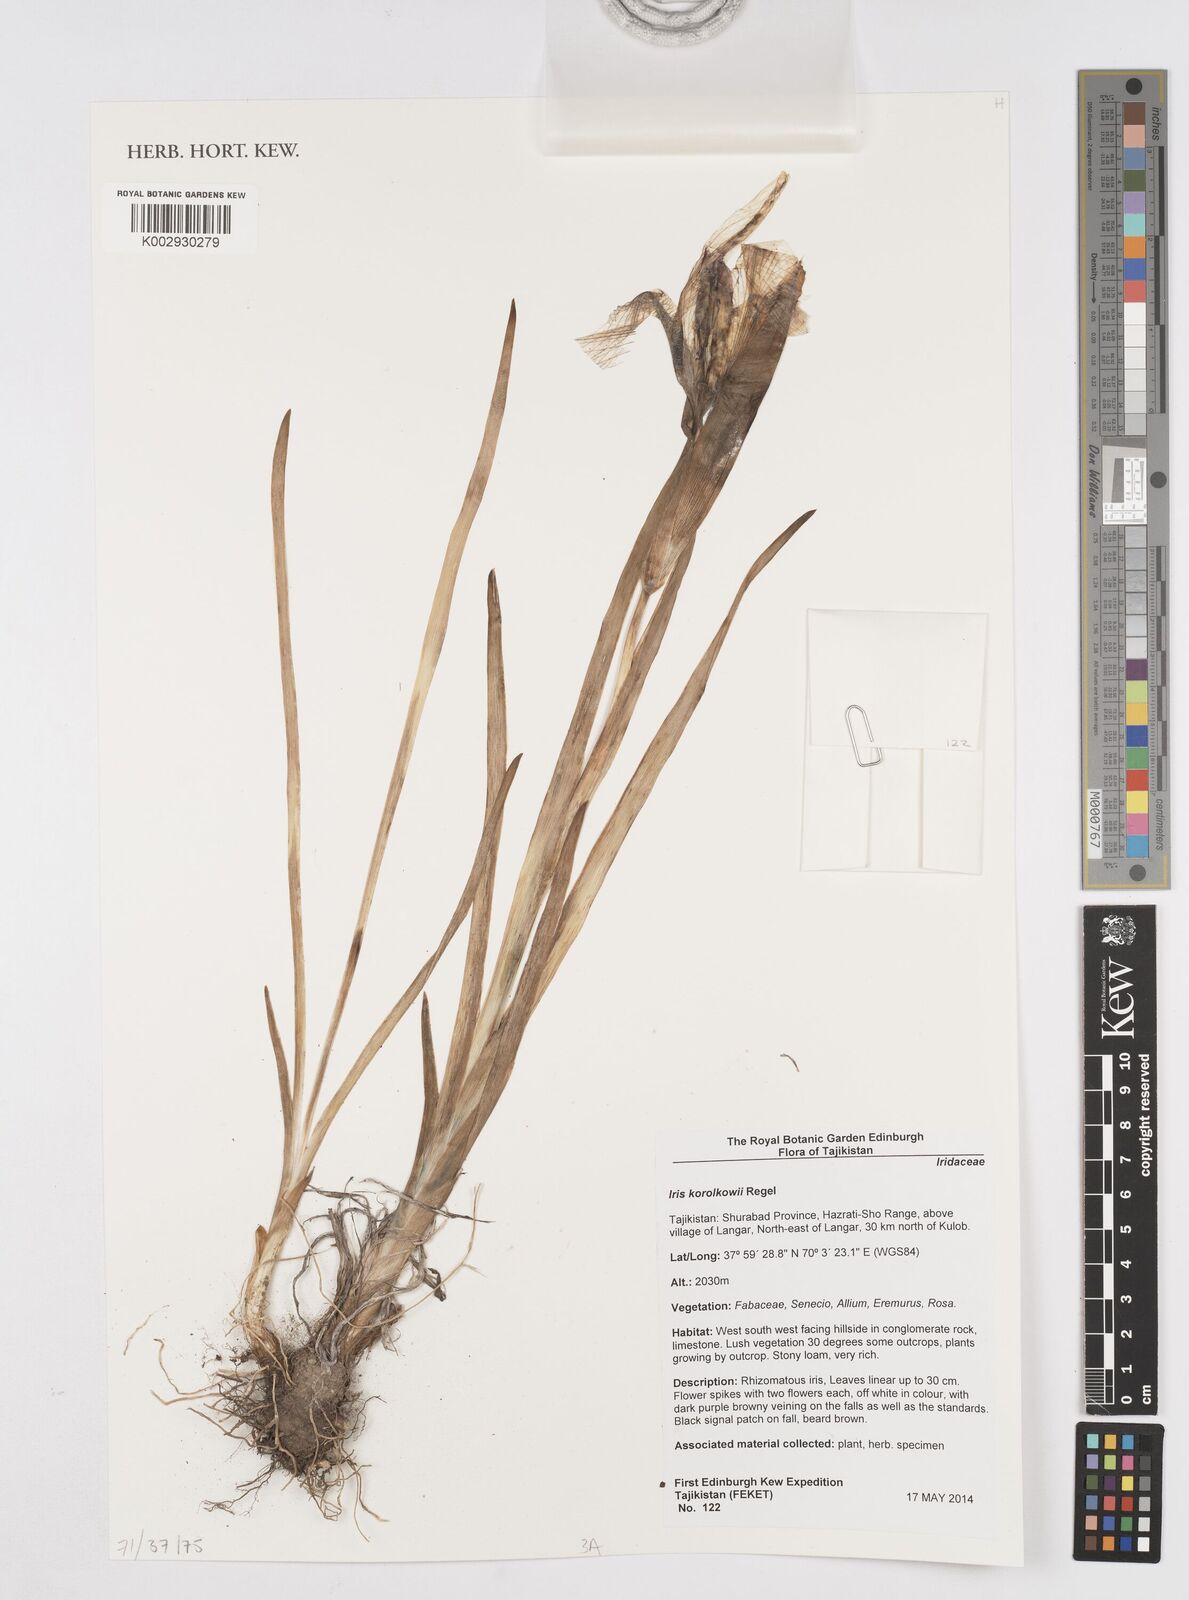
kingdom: Plantae
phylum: Tracheophyta
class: Liliopsida
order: Asparagales
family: Iridaceae
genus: Iris
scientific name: Iris korolkowii
